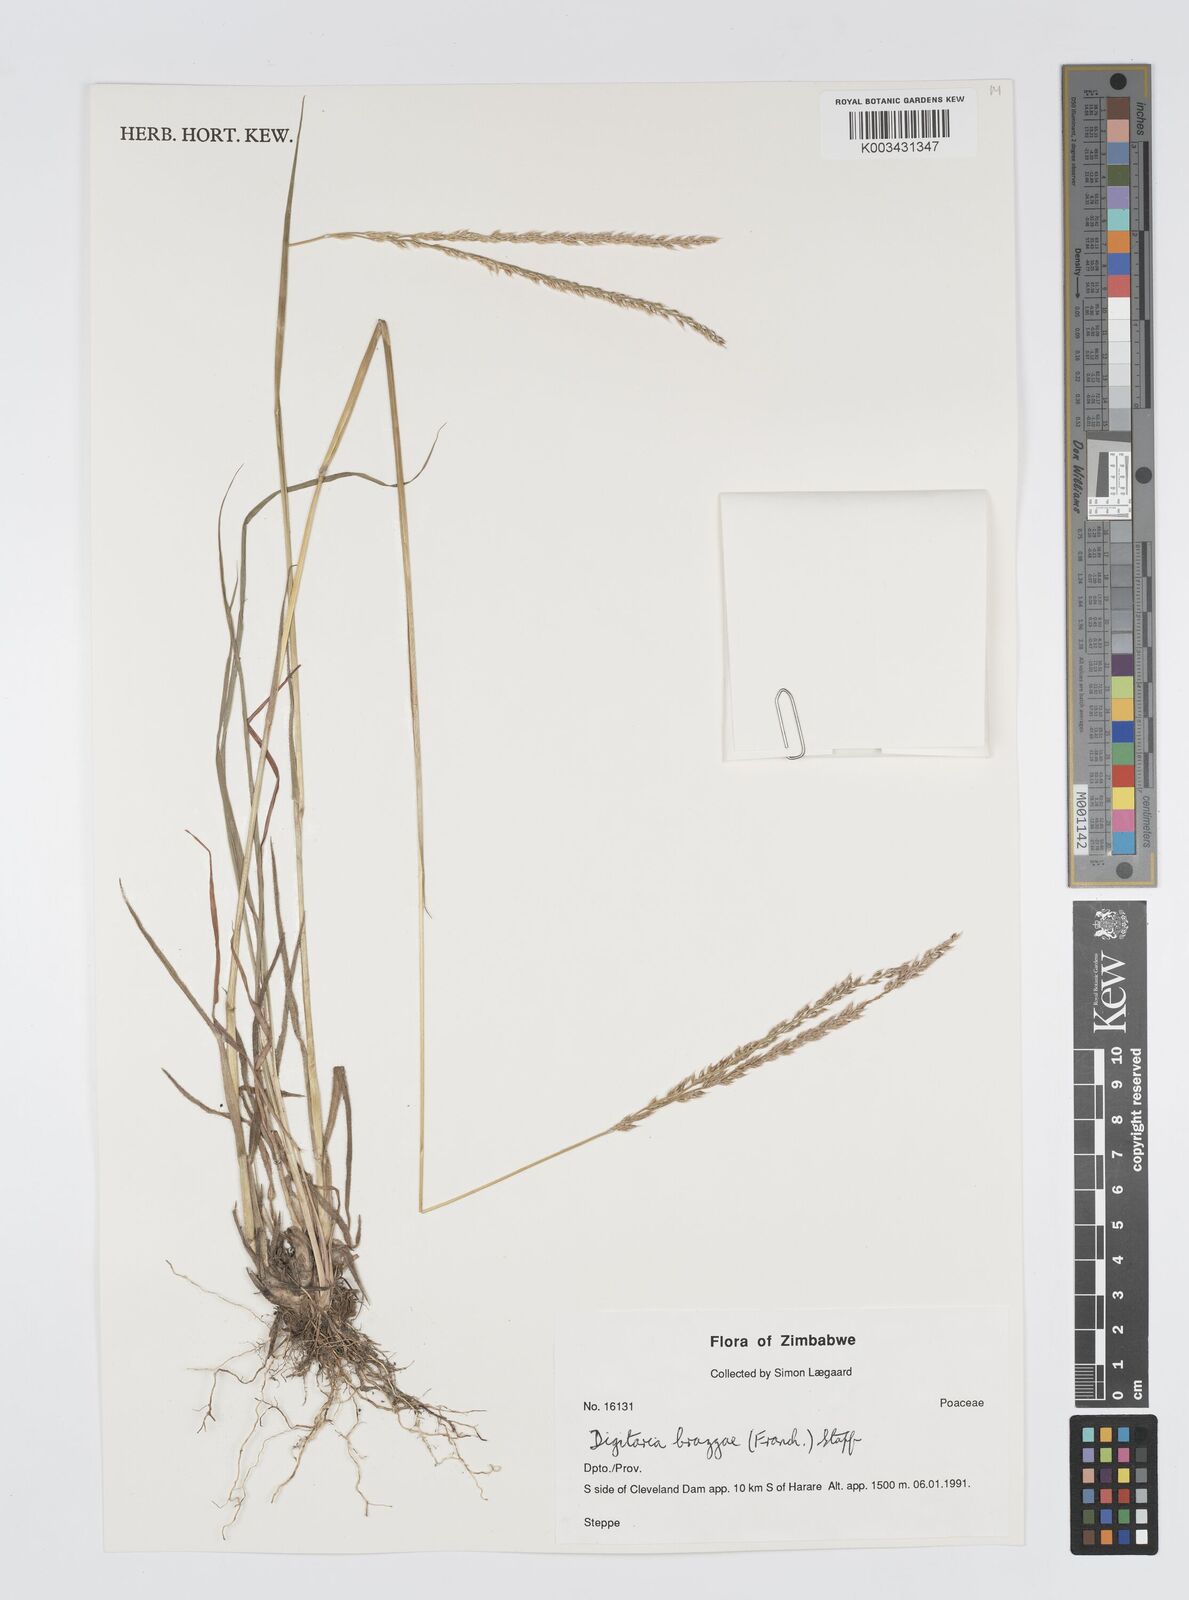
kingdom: Plantae
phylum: Tracheophyta
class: Liliopsida
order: Poales
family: Poaceae
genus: Digitaria
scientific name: Digitaria brazzae
